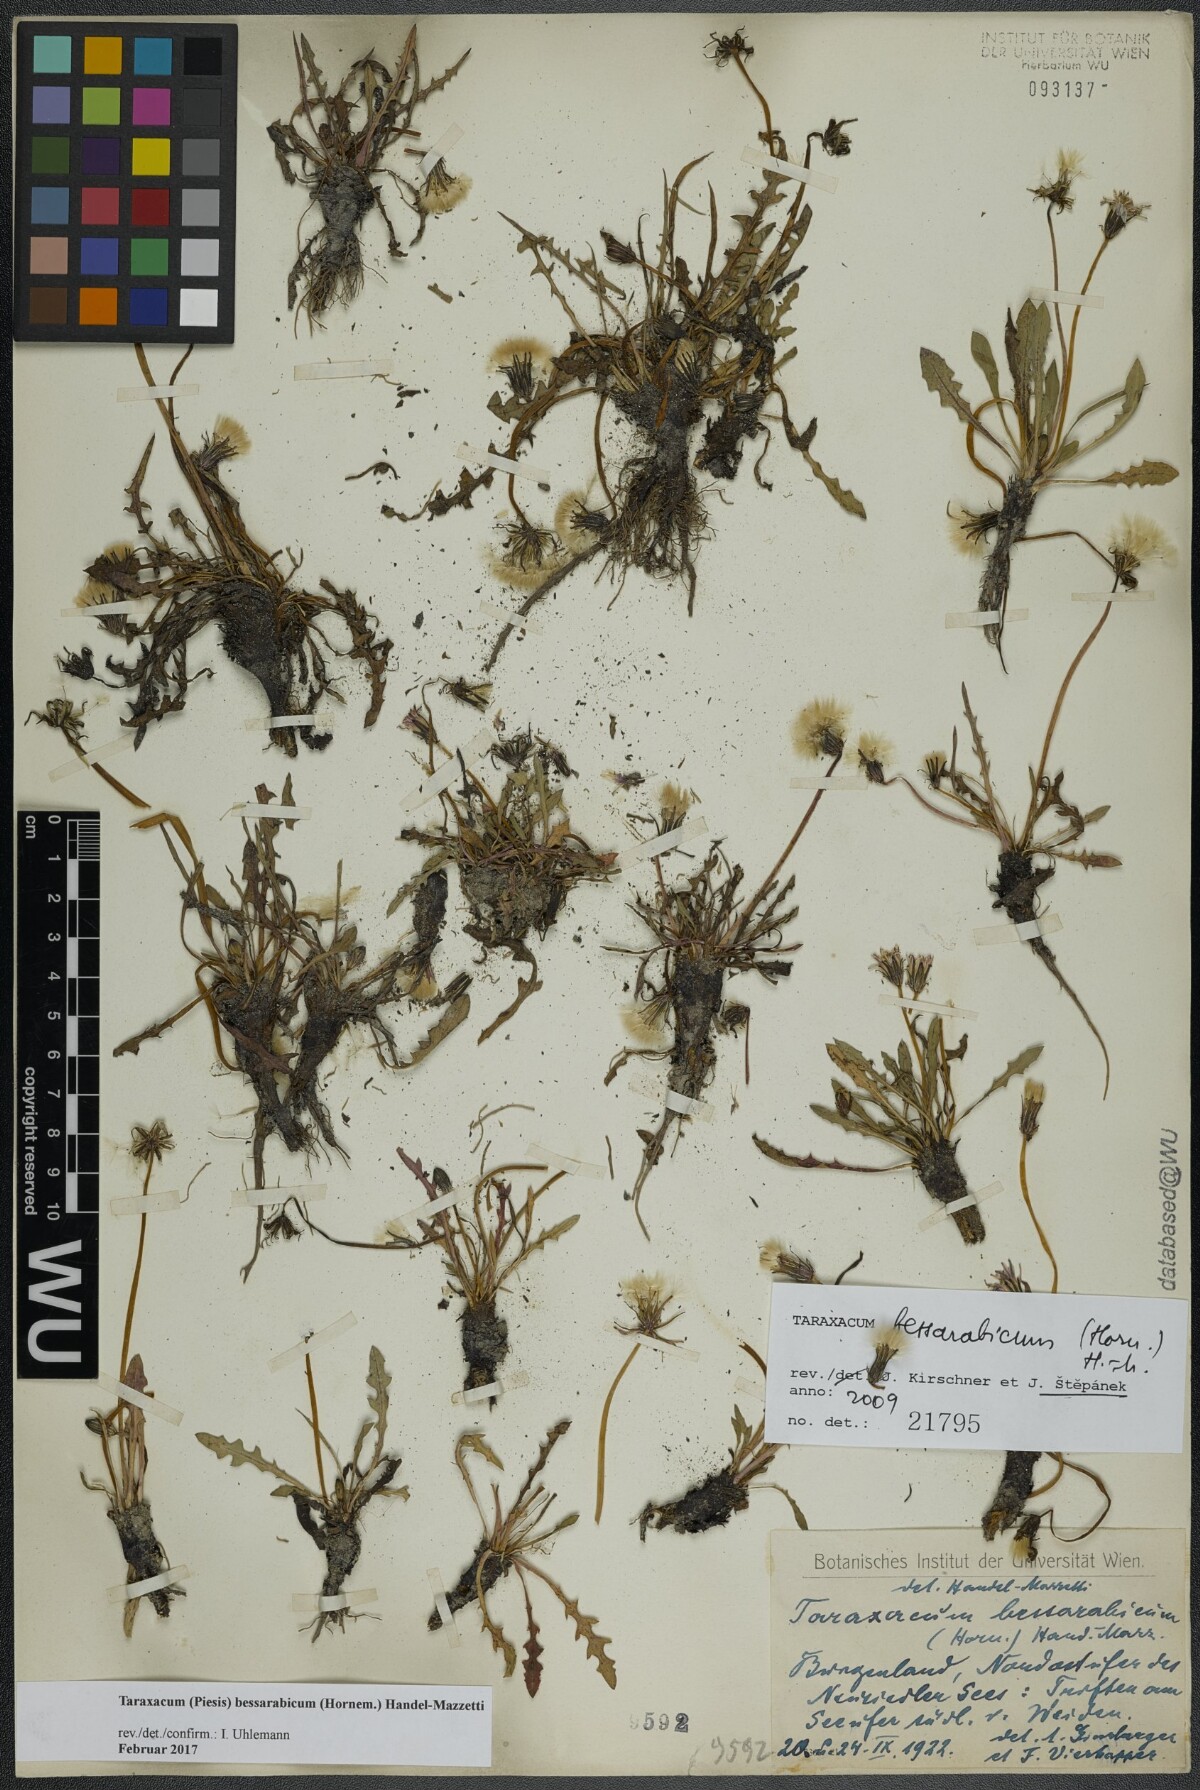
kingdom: Plantae
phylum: Tracheophyta
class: Magnoliopsida
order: Asterales
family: Asteraceae
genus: Taraxacum
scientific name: Taraxacum bessarabicum
